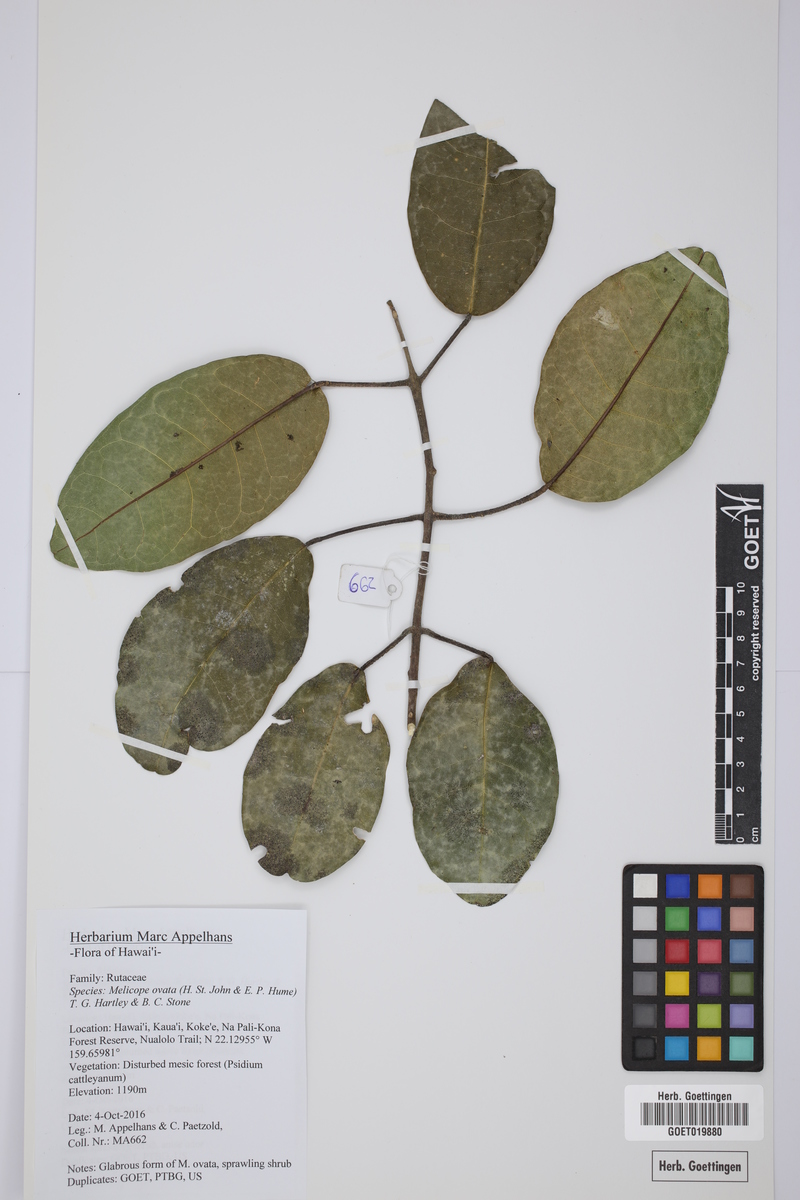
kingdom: Plantae
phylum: Tracheophyta
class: Magnoliopsida
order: Sapindales
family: Rutaceae
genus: Melicope
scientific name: Melicope ovata
